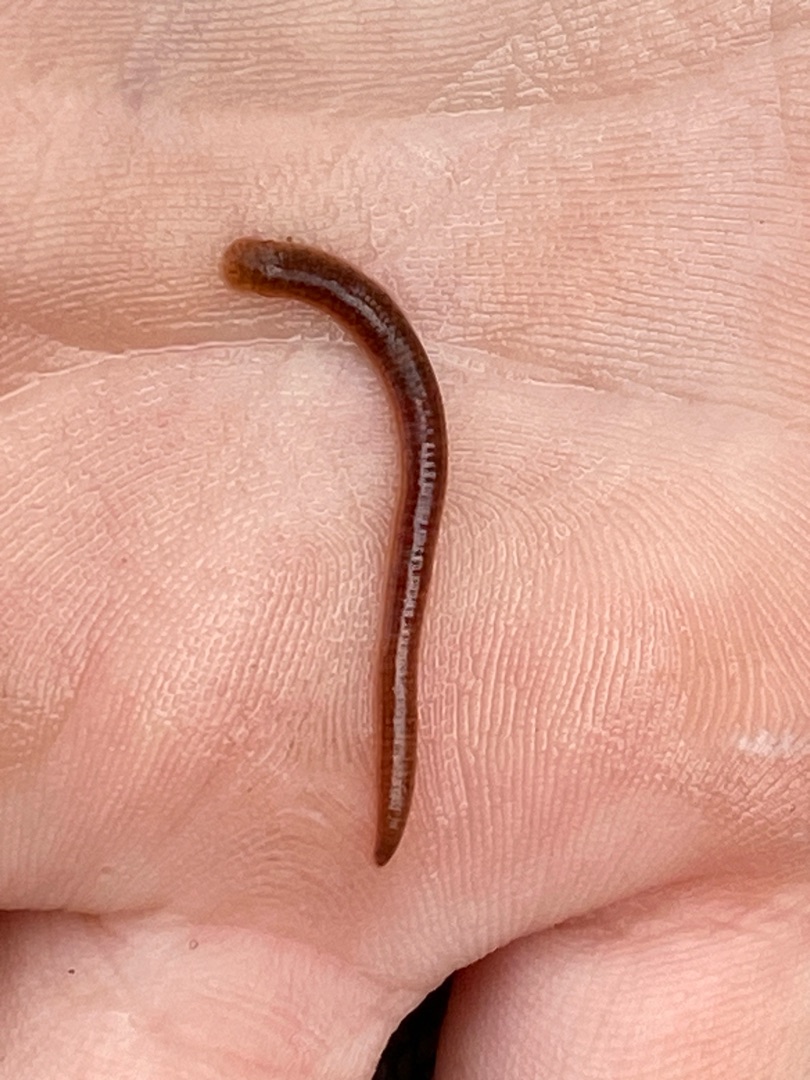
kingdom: Animalia
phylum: Annelida
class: Clitellata
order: Arhynchobdellida
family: Erpobdellidae
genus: Erpobdella
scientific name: Erpobdella octoculata
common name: Hundeigle
